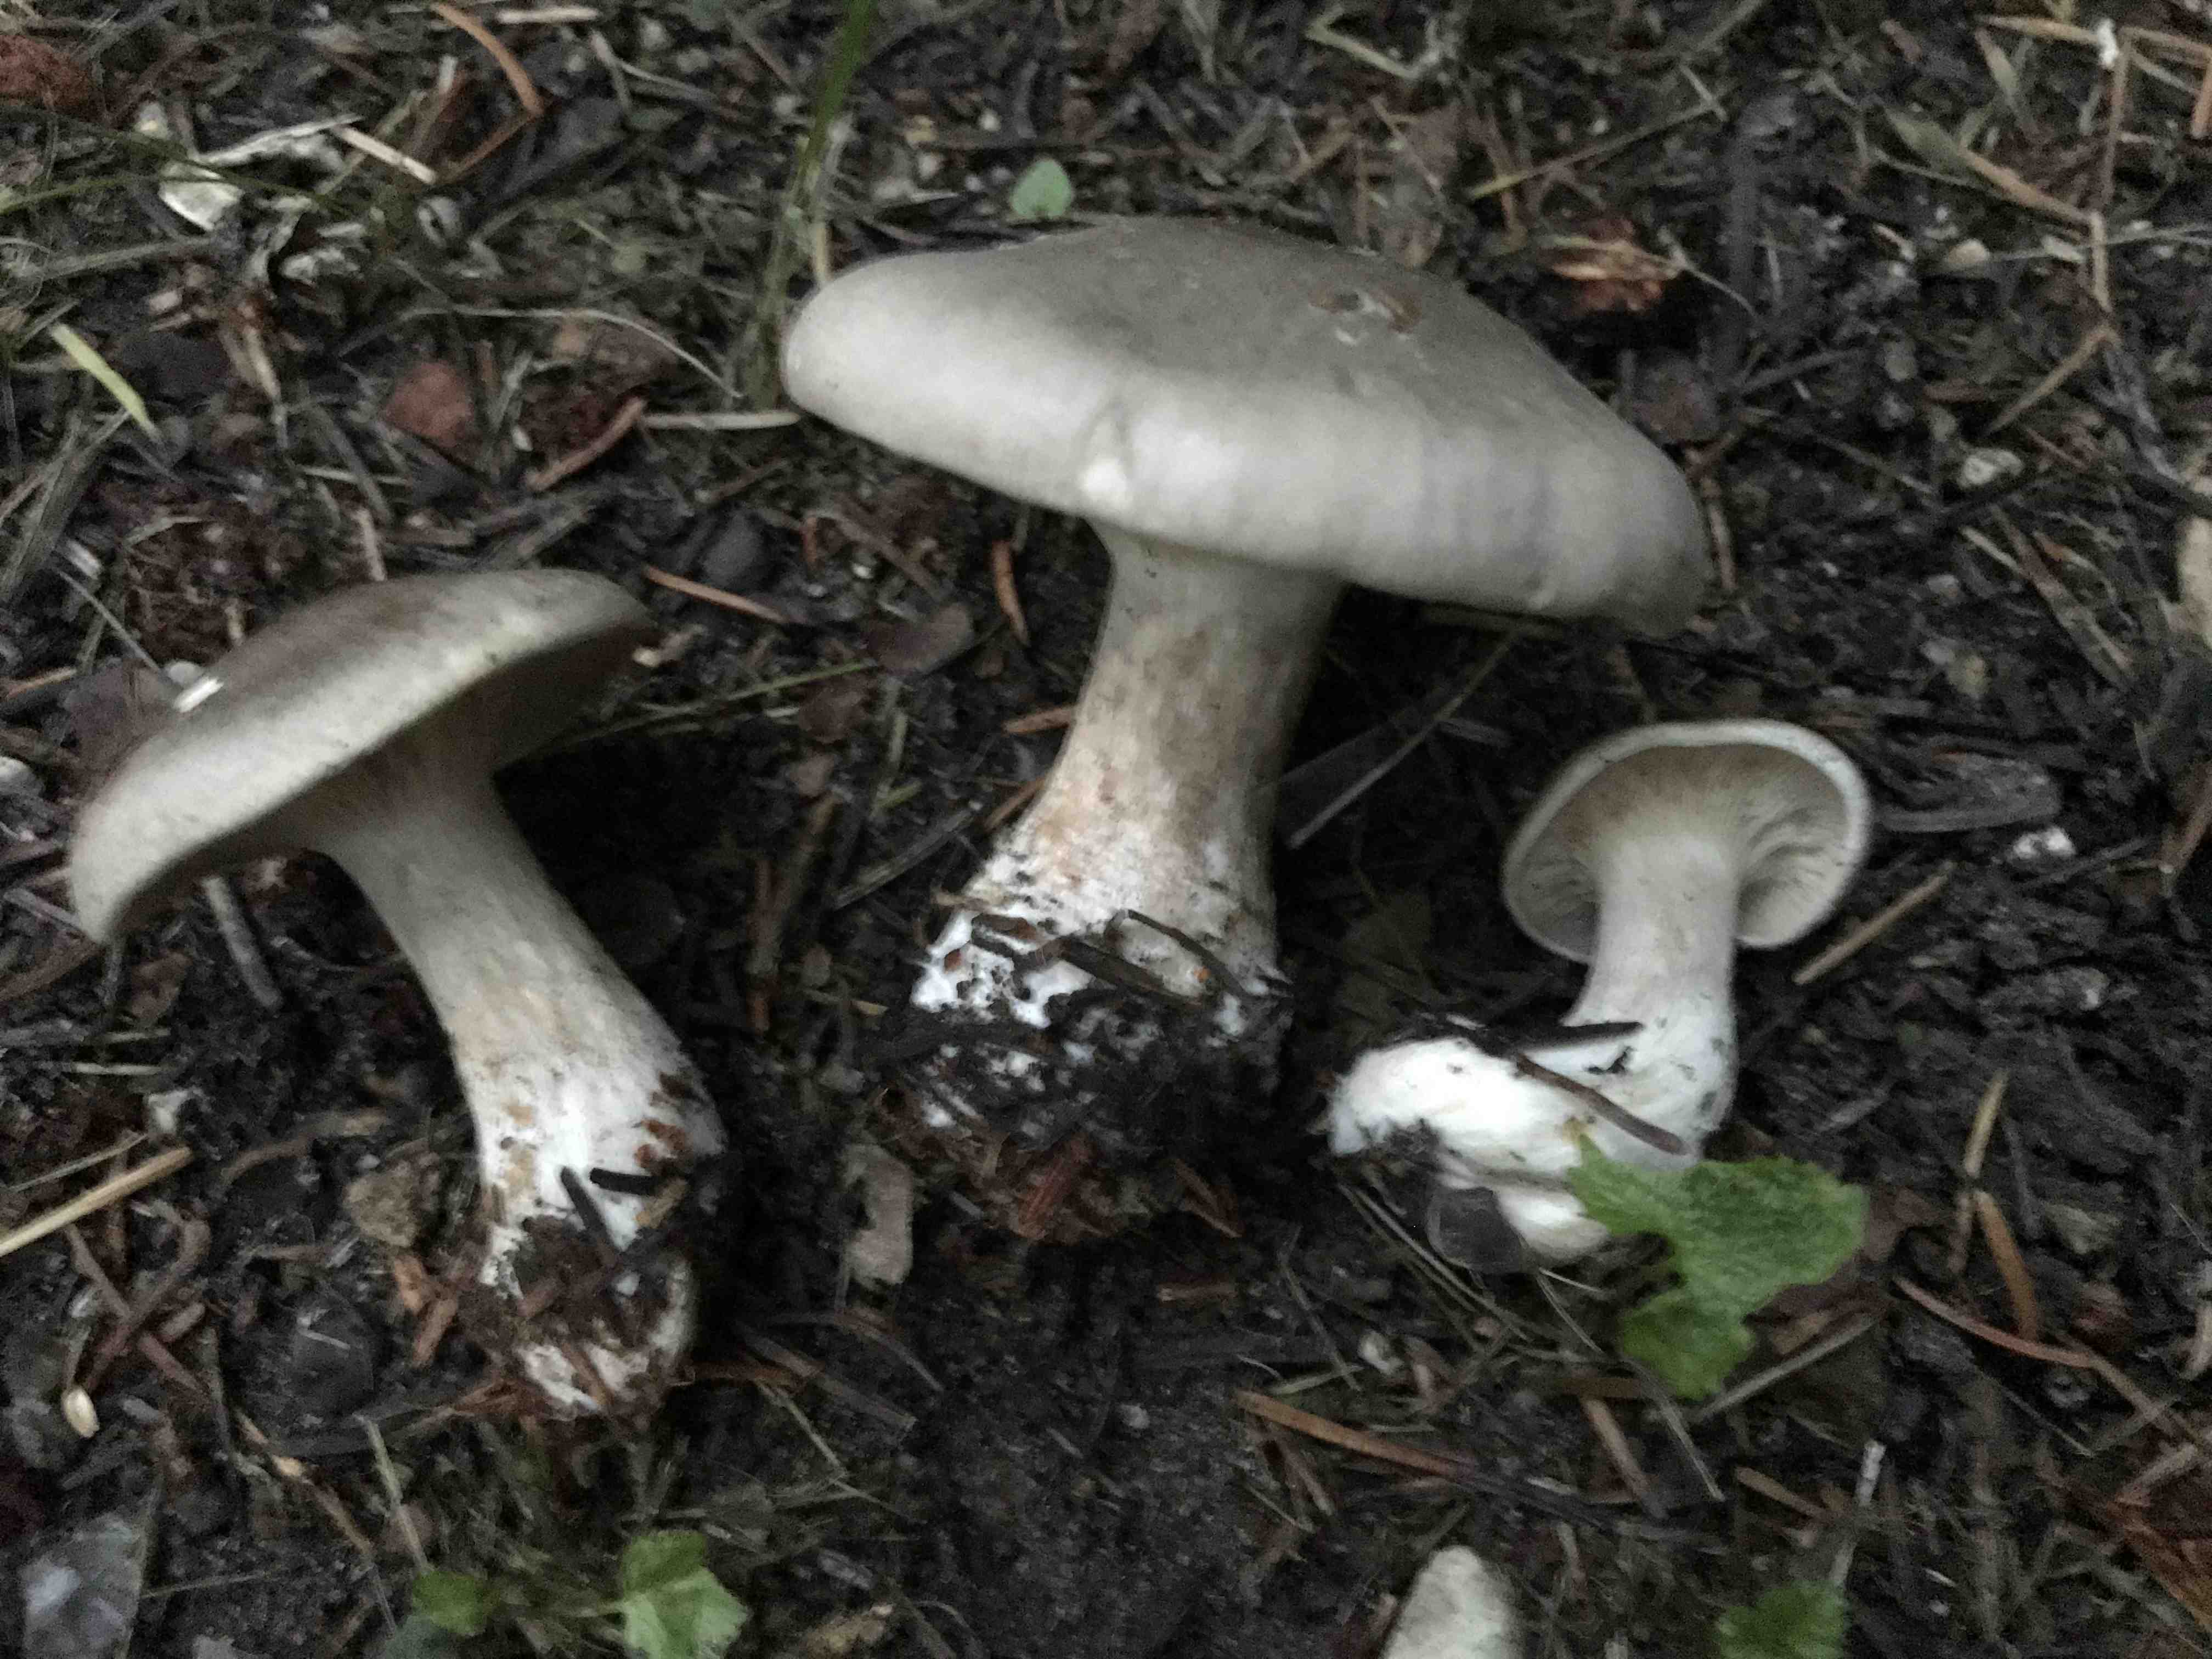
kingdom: Fungi
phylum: Basidiomycota
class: Agaricomycetes
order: Agaricales
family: Tricholomataceae
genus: Clitocybe
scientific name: Clitocybe nebularis
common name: tåge-tragthat
